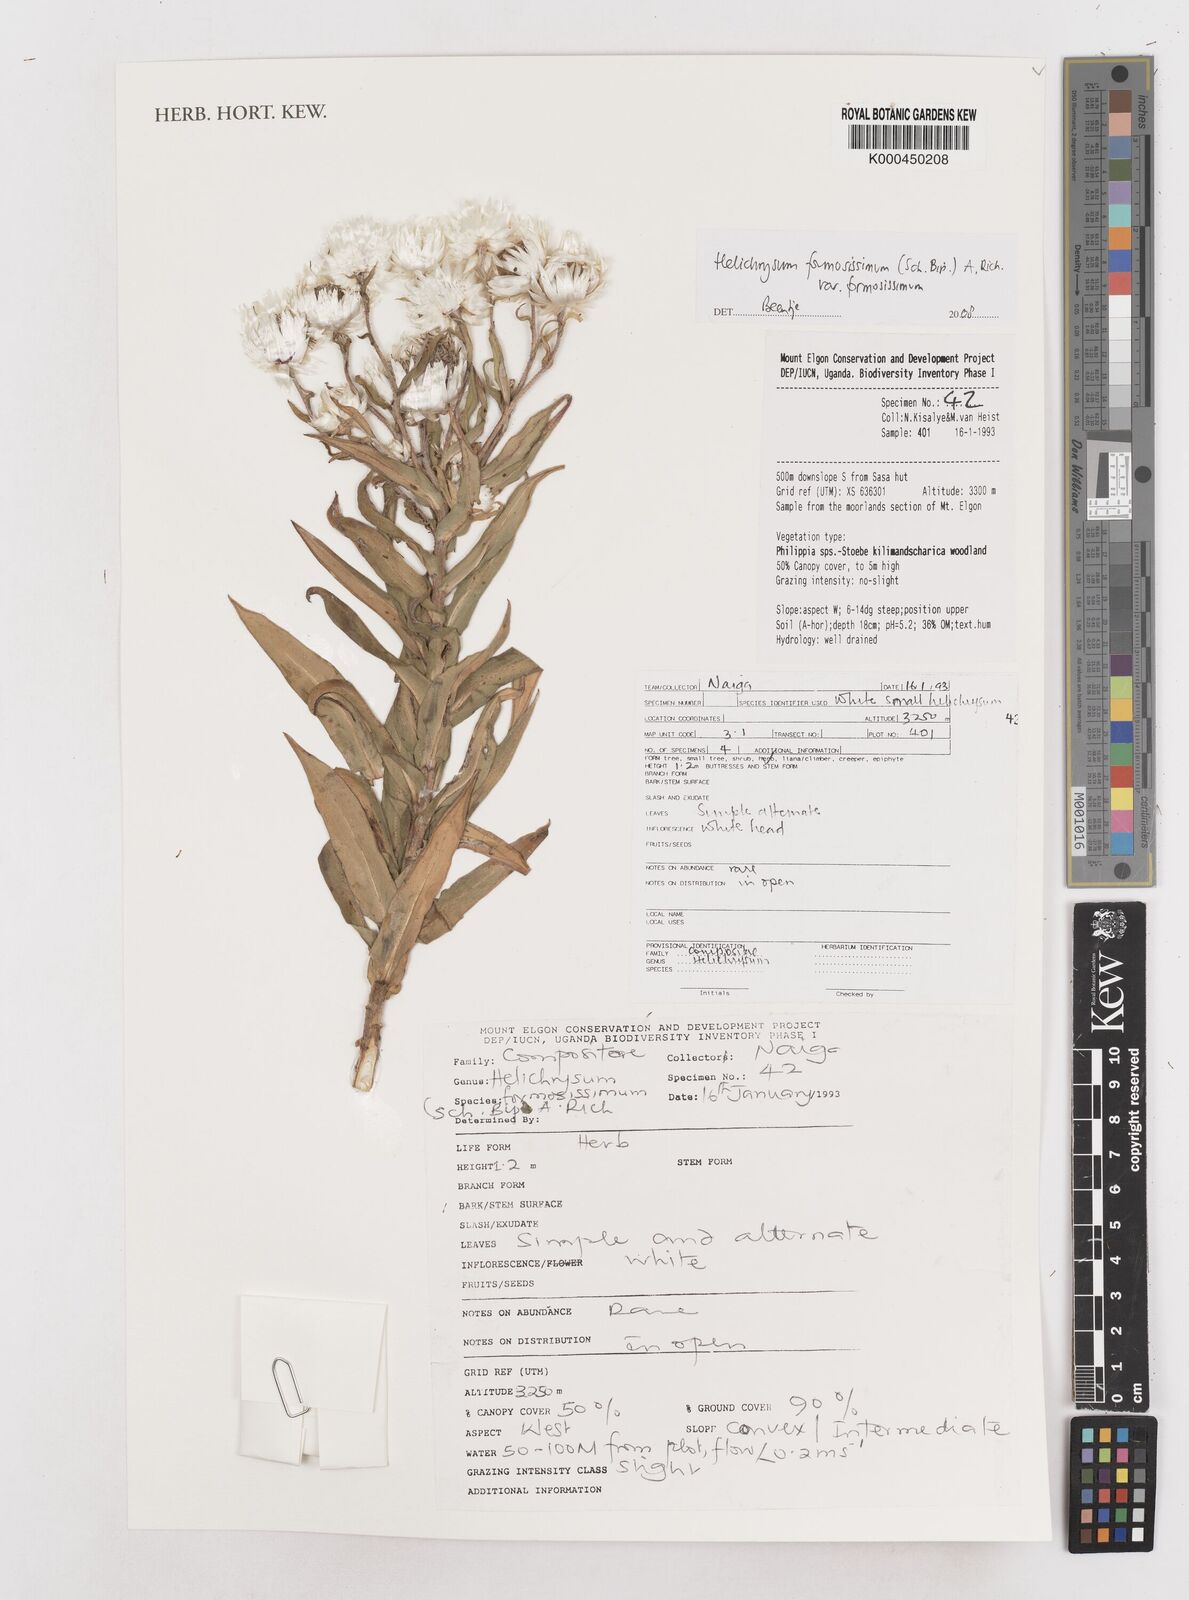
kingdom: Plantae
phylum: Tracheophyta
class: Magnoliopsida
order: Asterales
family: Asteraceae
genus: Helichrysum
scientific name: Helichrysum
